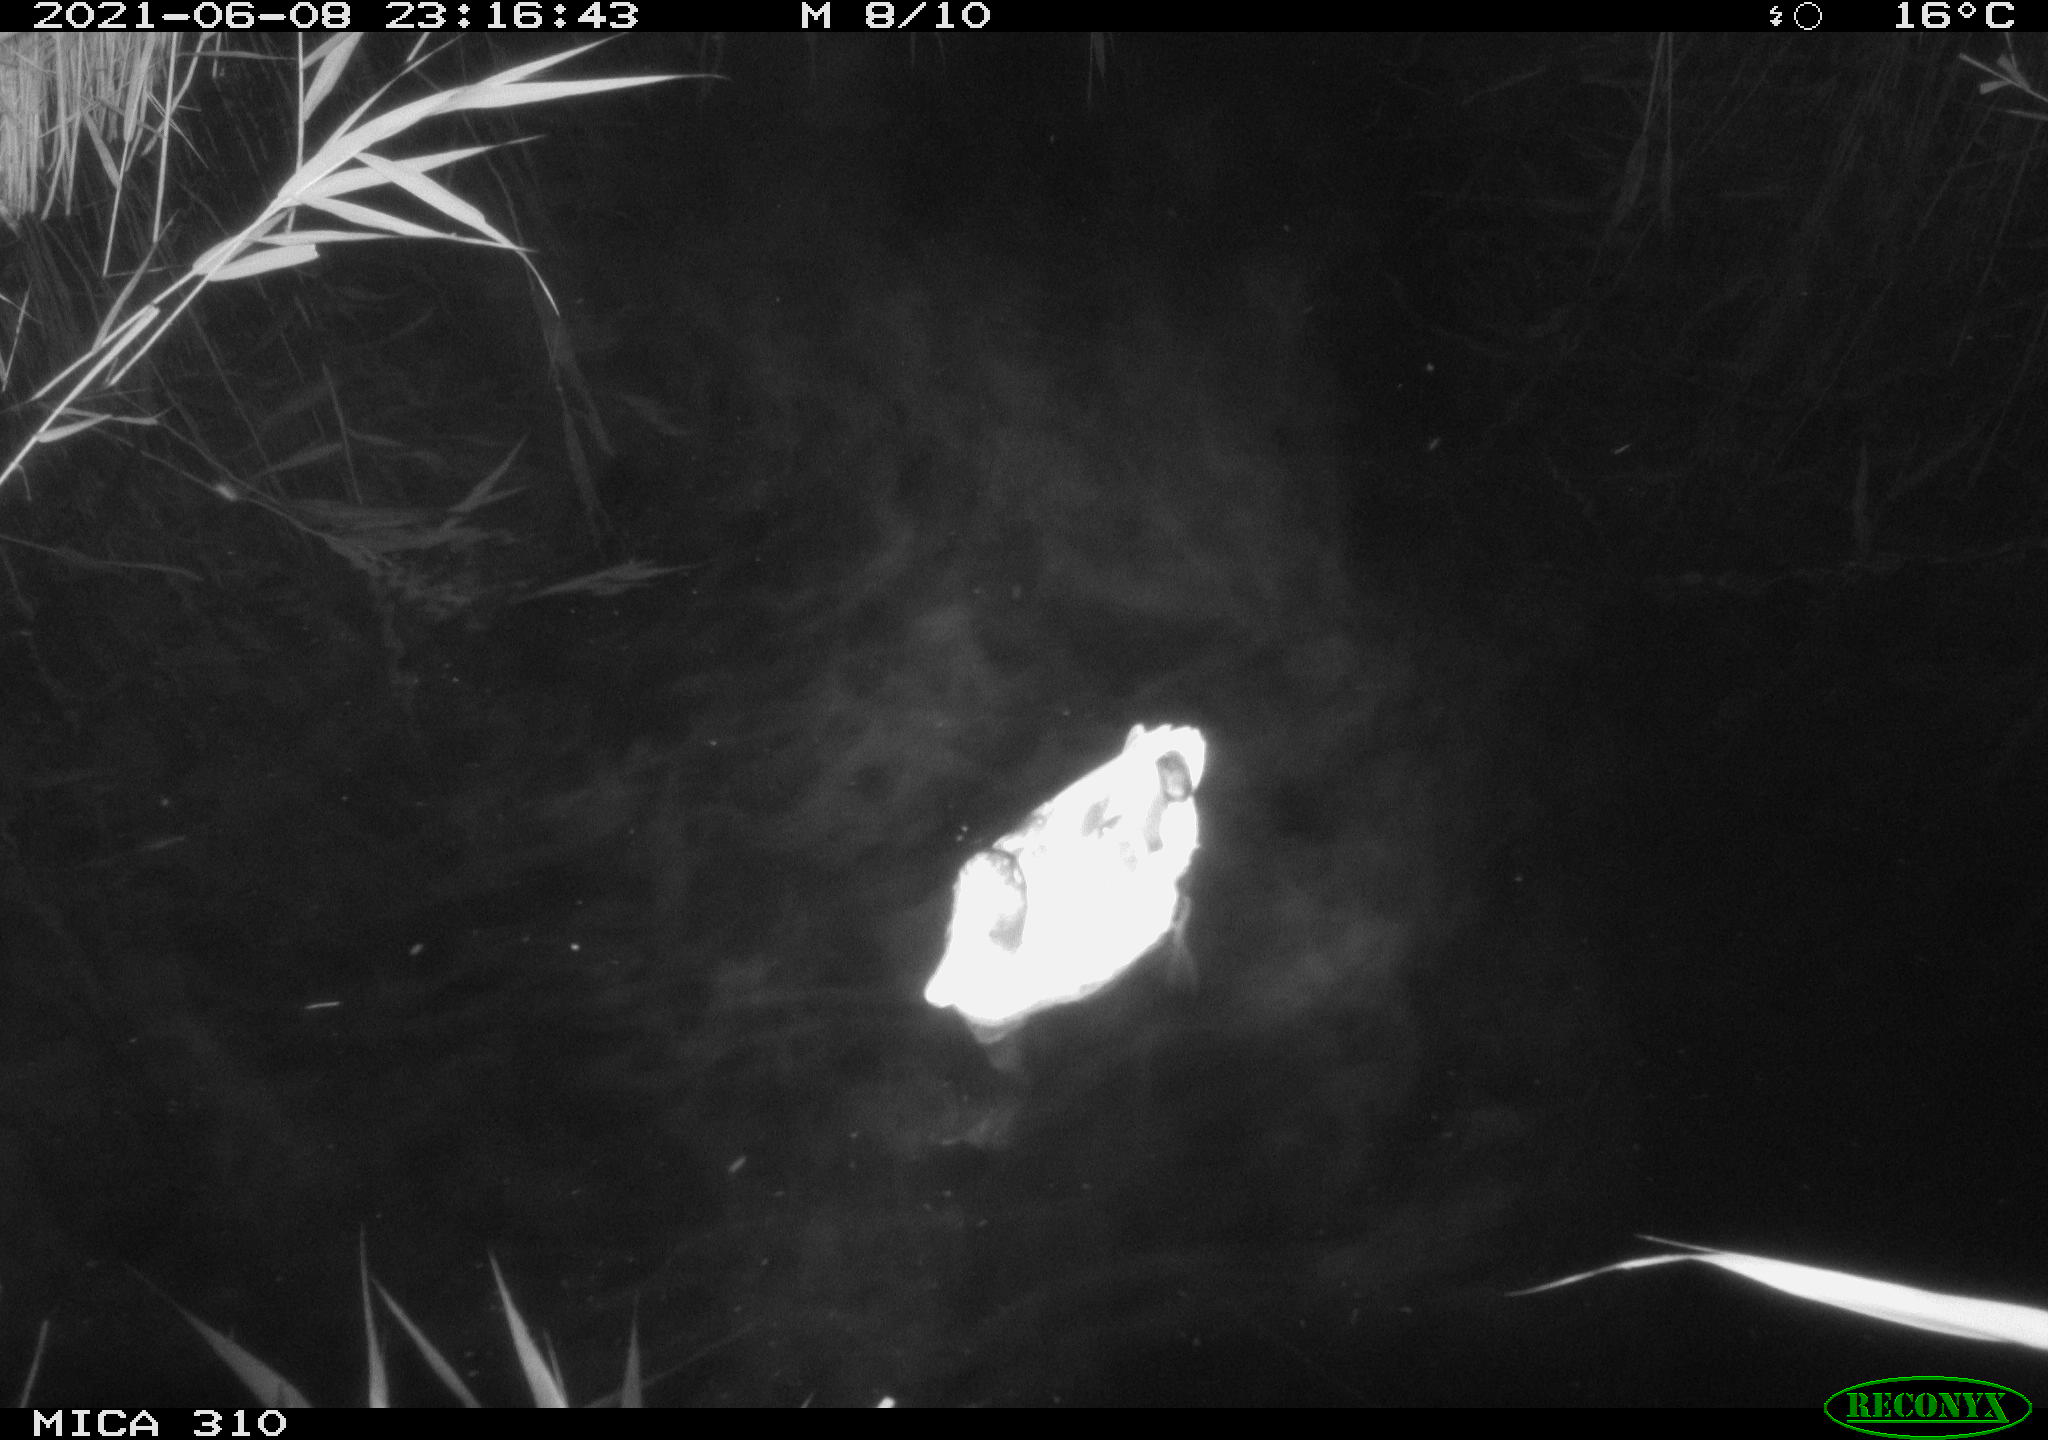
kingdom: Animalia
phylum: Chordata
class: Aves
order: Anseriformes
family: Anatidae
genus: Anas
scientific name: Anas
